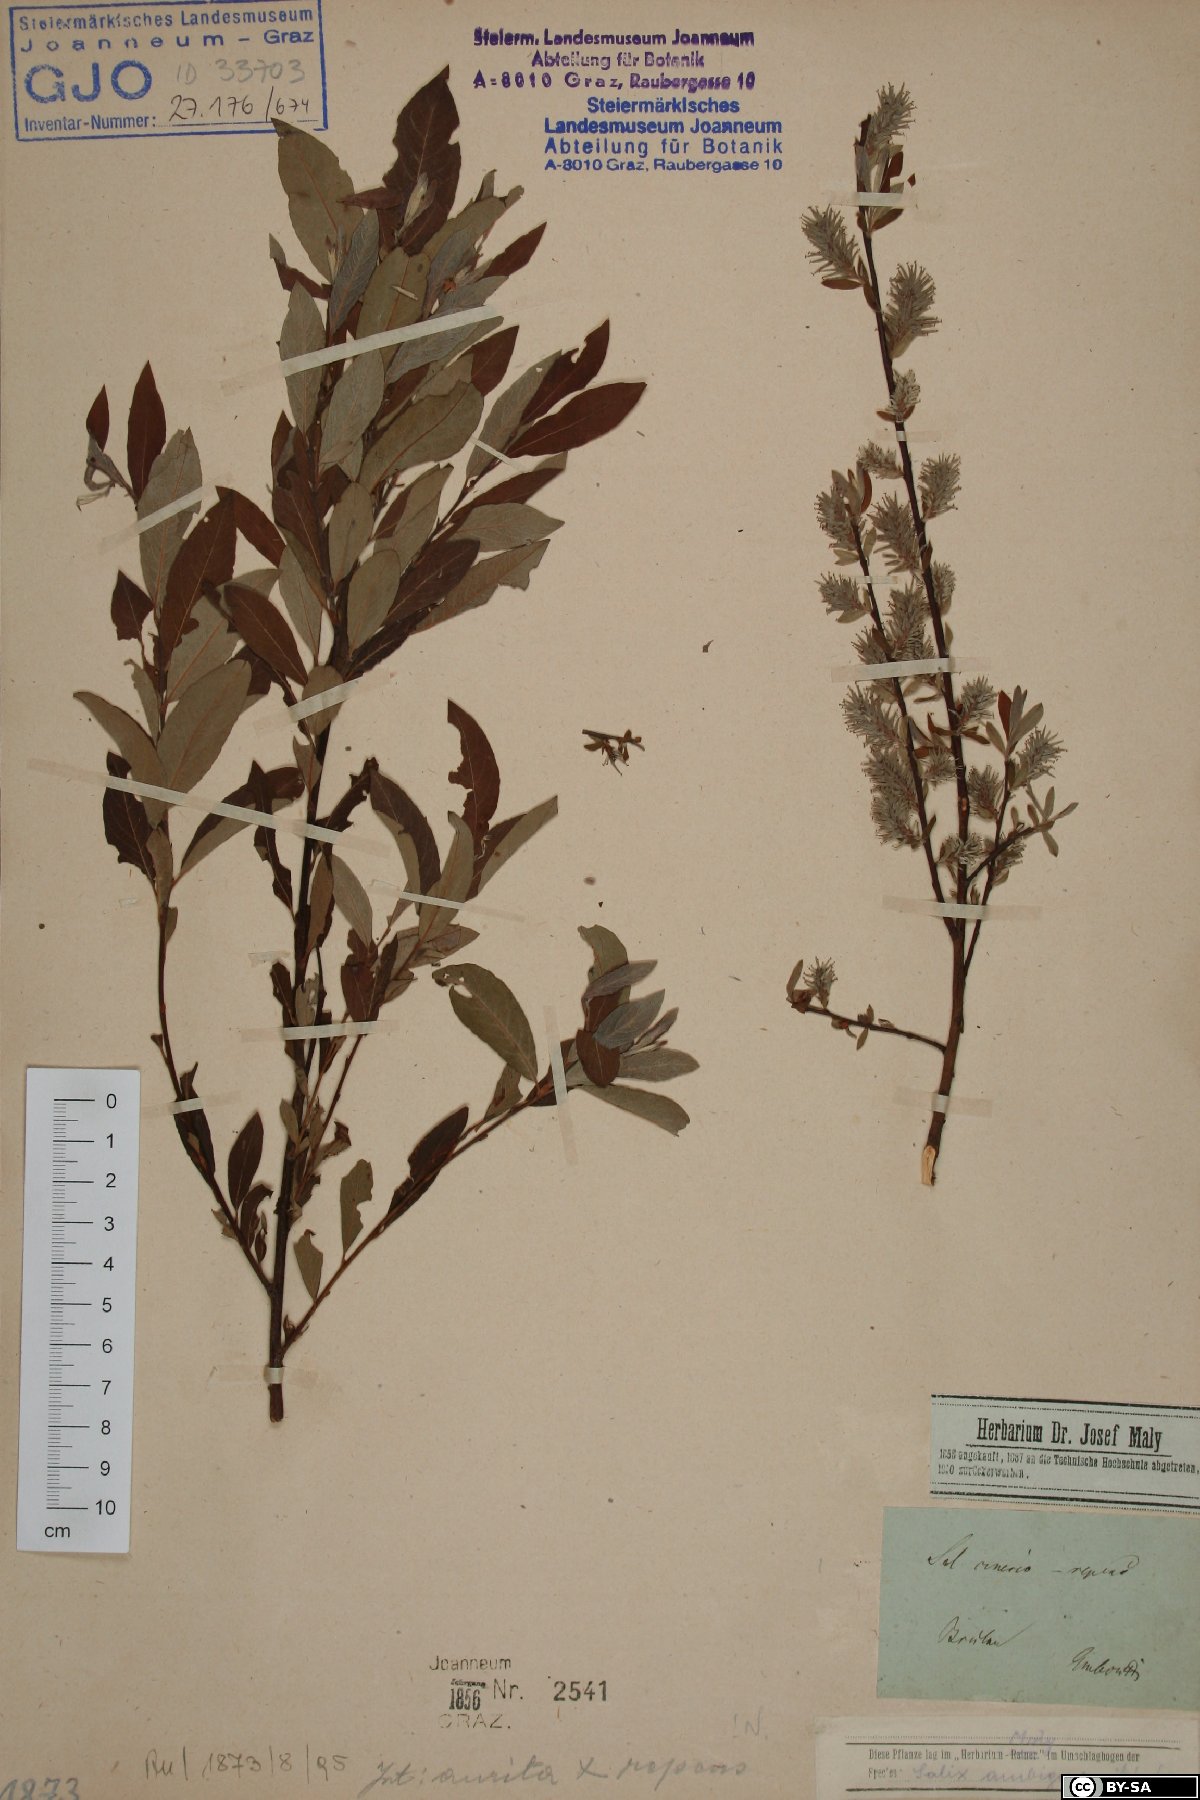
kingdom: Plantae
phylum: Tracheophyta
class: Magnoliopsida
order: Malpighiales
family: Salicaceae
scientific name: Salicaceae
